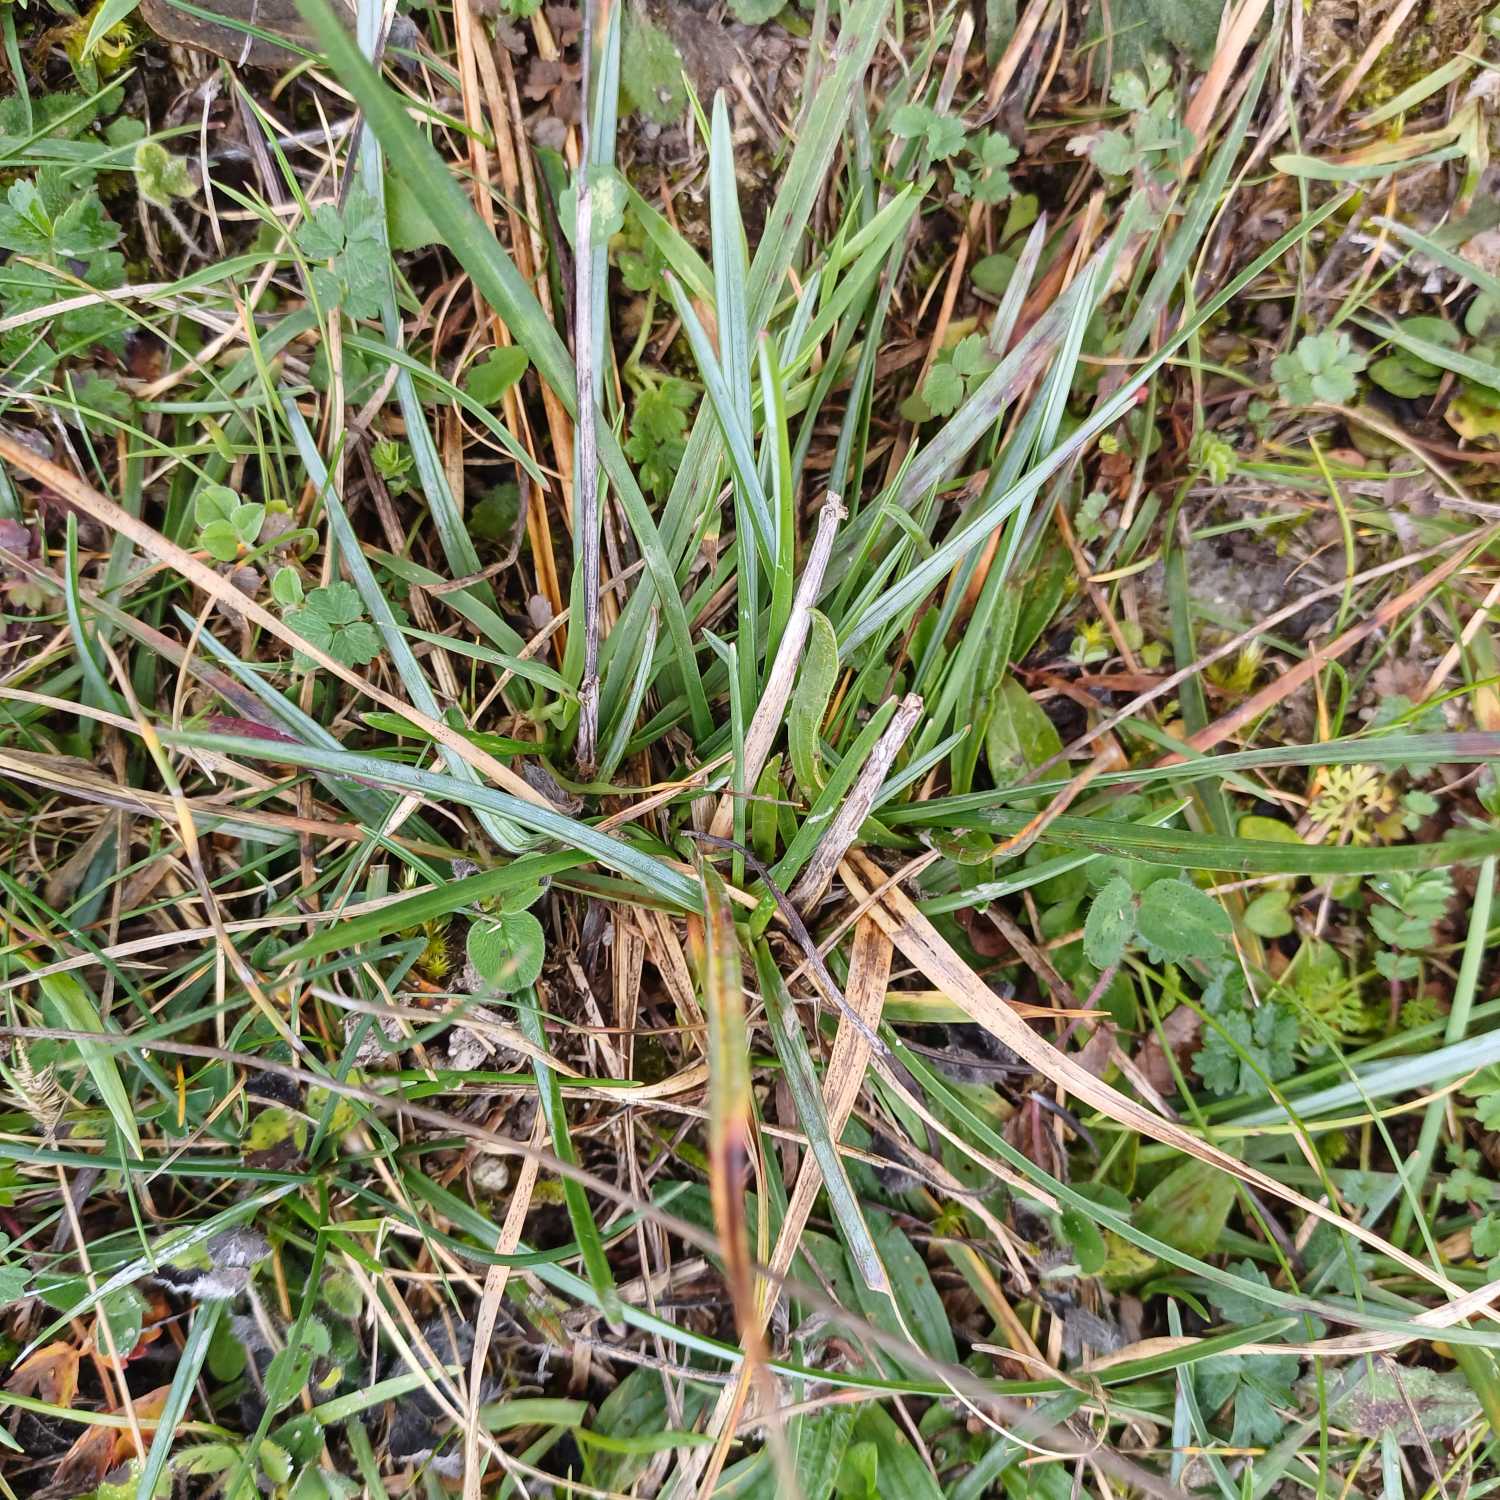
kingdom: Plantae
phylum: Tracheophyta
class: Liliopsida
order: Poales
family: Poaceae
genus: Helictochloa
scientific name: Helictochloa pratensis
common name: Eng-havre
